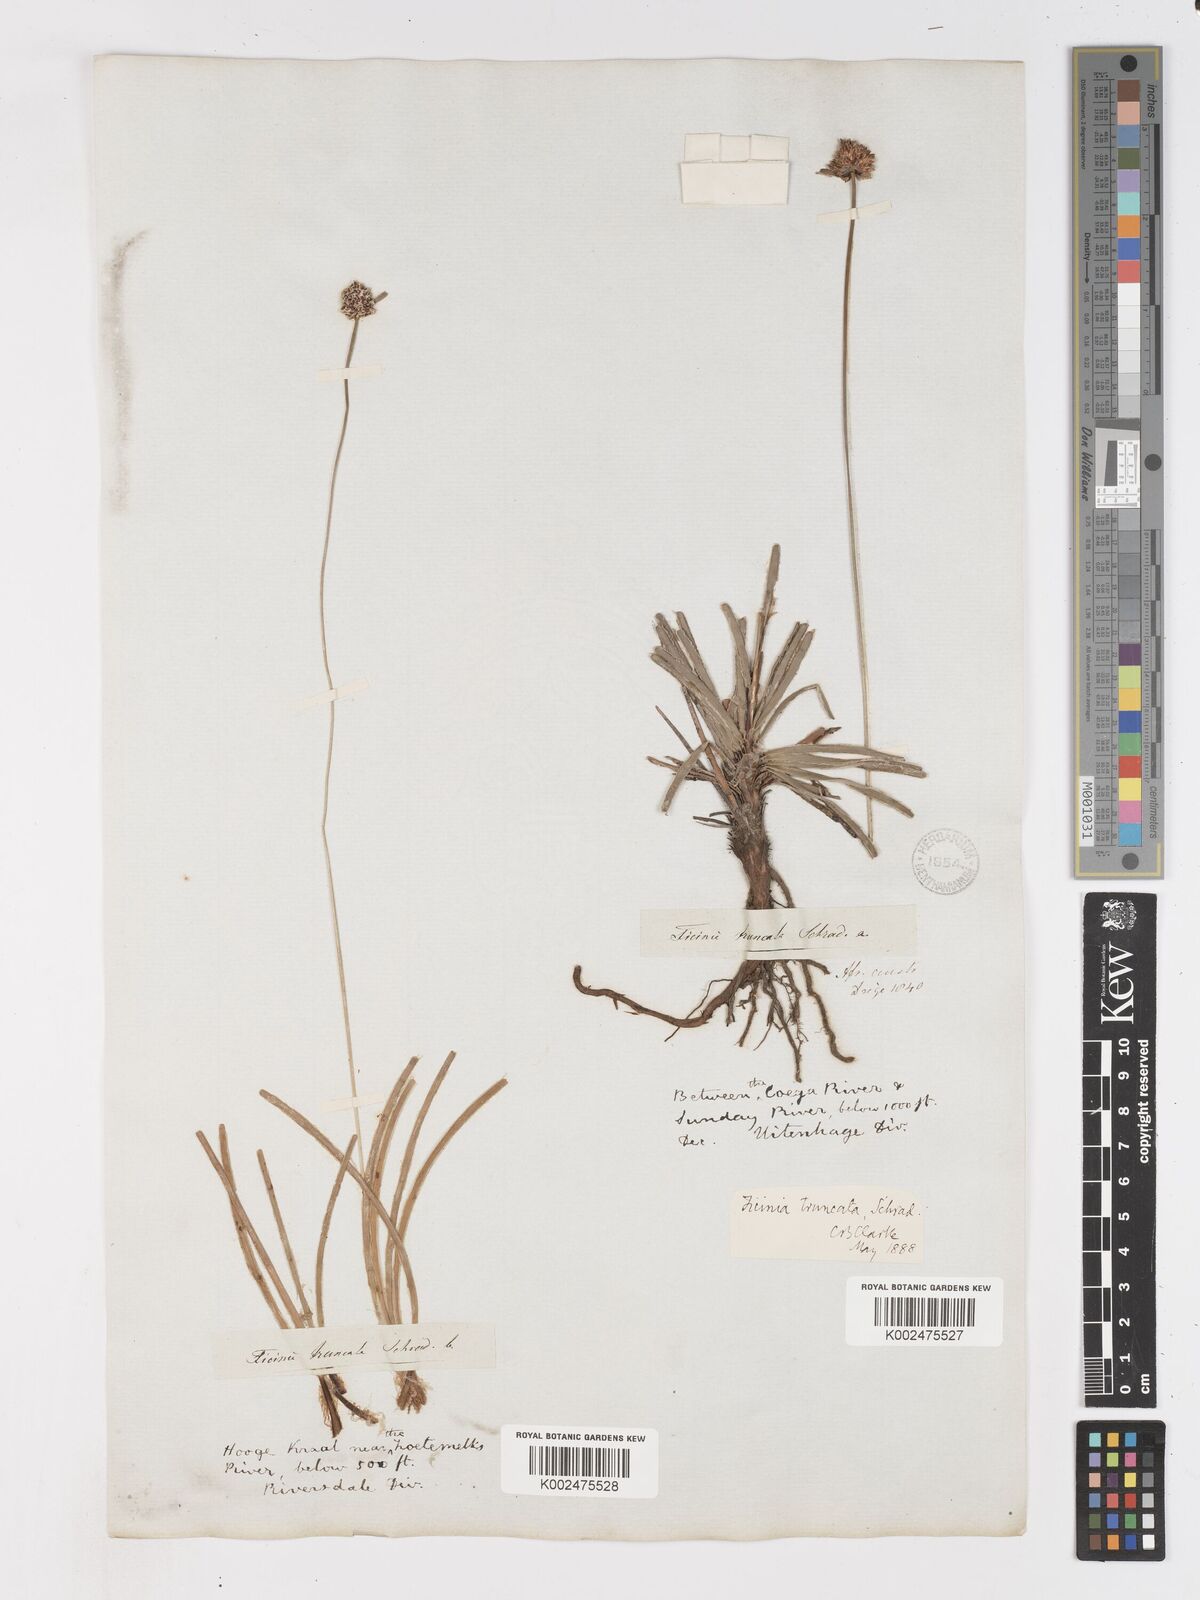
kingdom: Plantae
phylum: Tracheophyta
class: Liliopsida
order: Poales
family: Cyperaceae
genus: Ficinia
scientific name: Ficinia truncata
